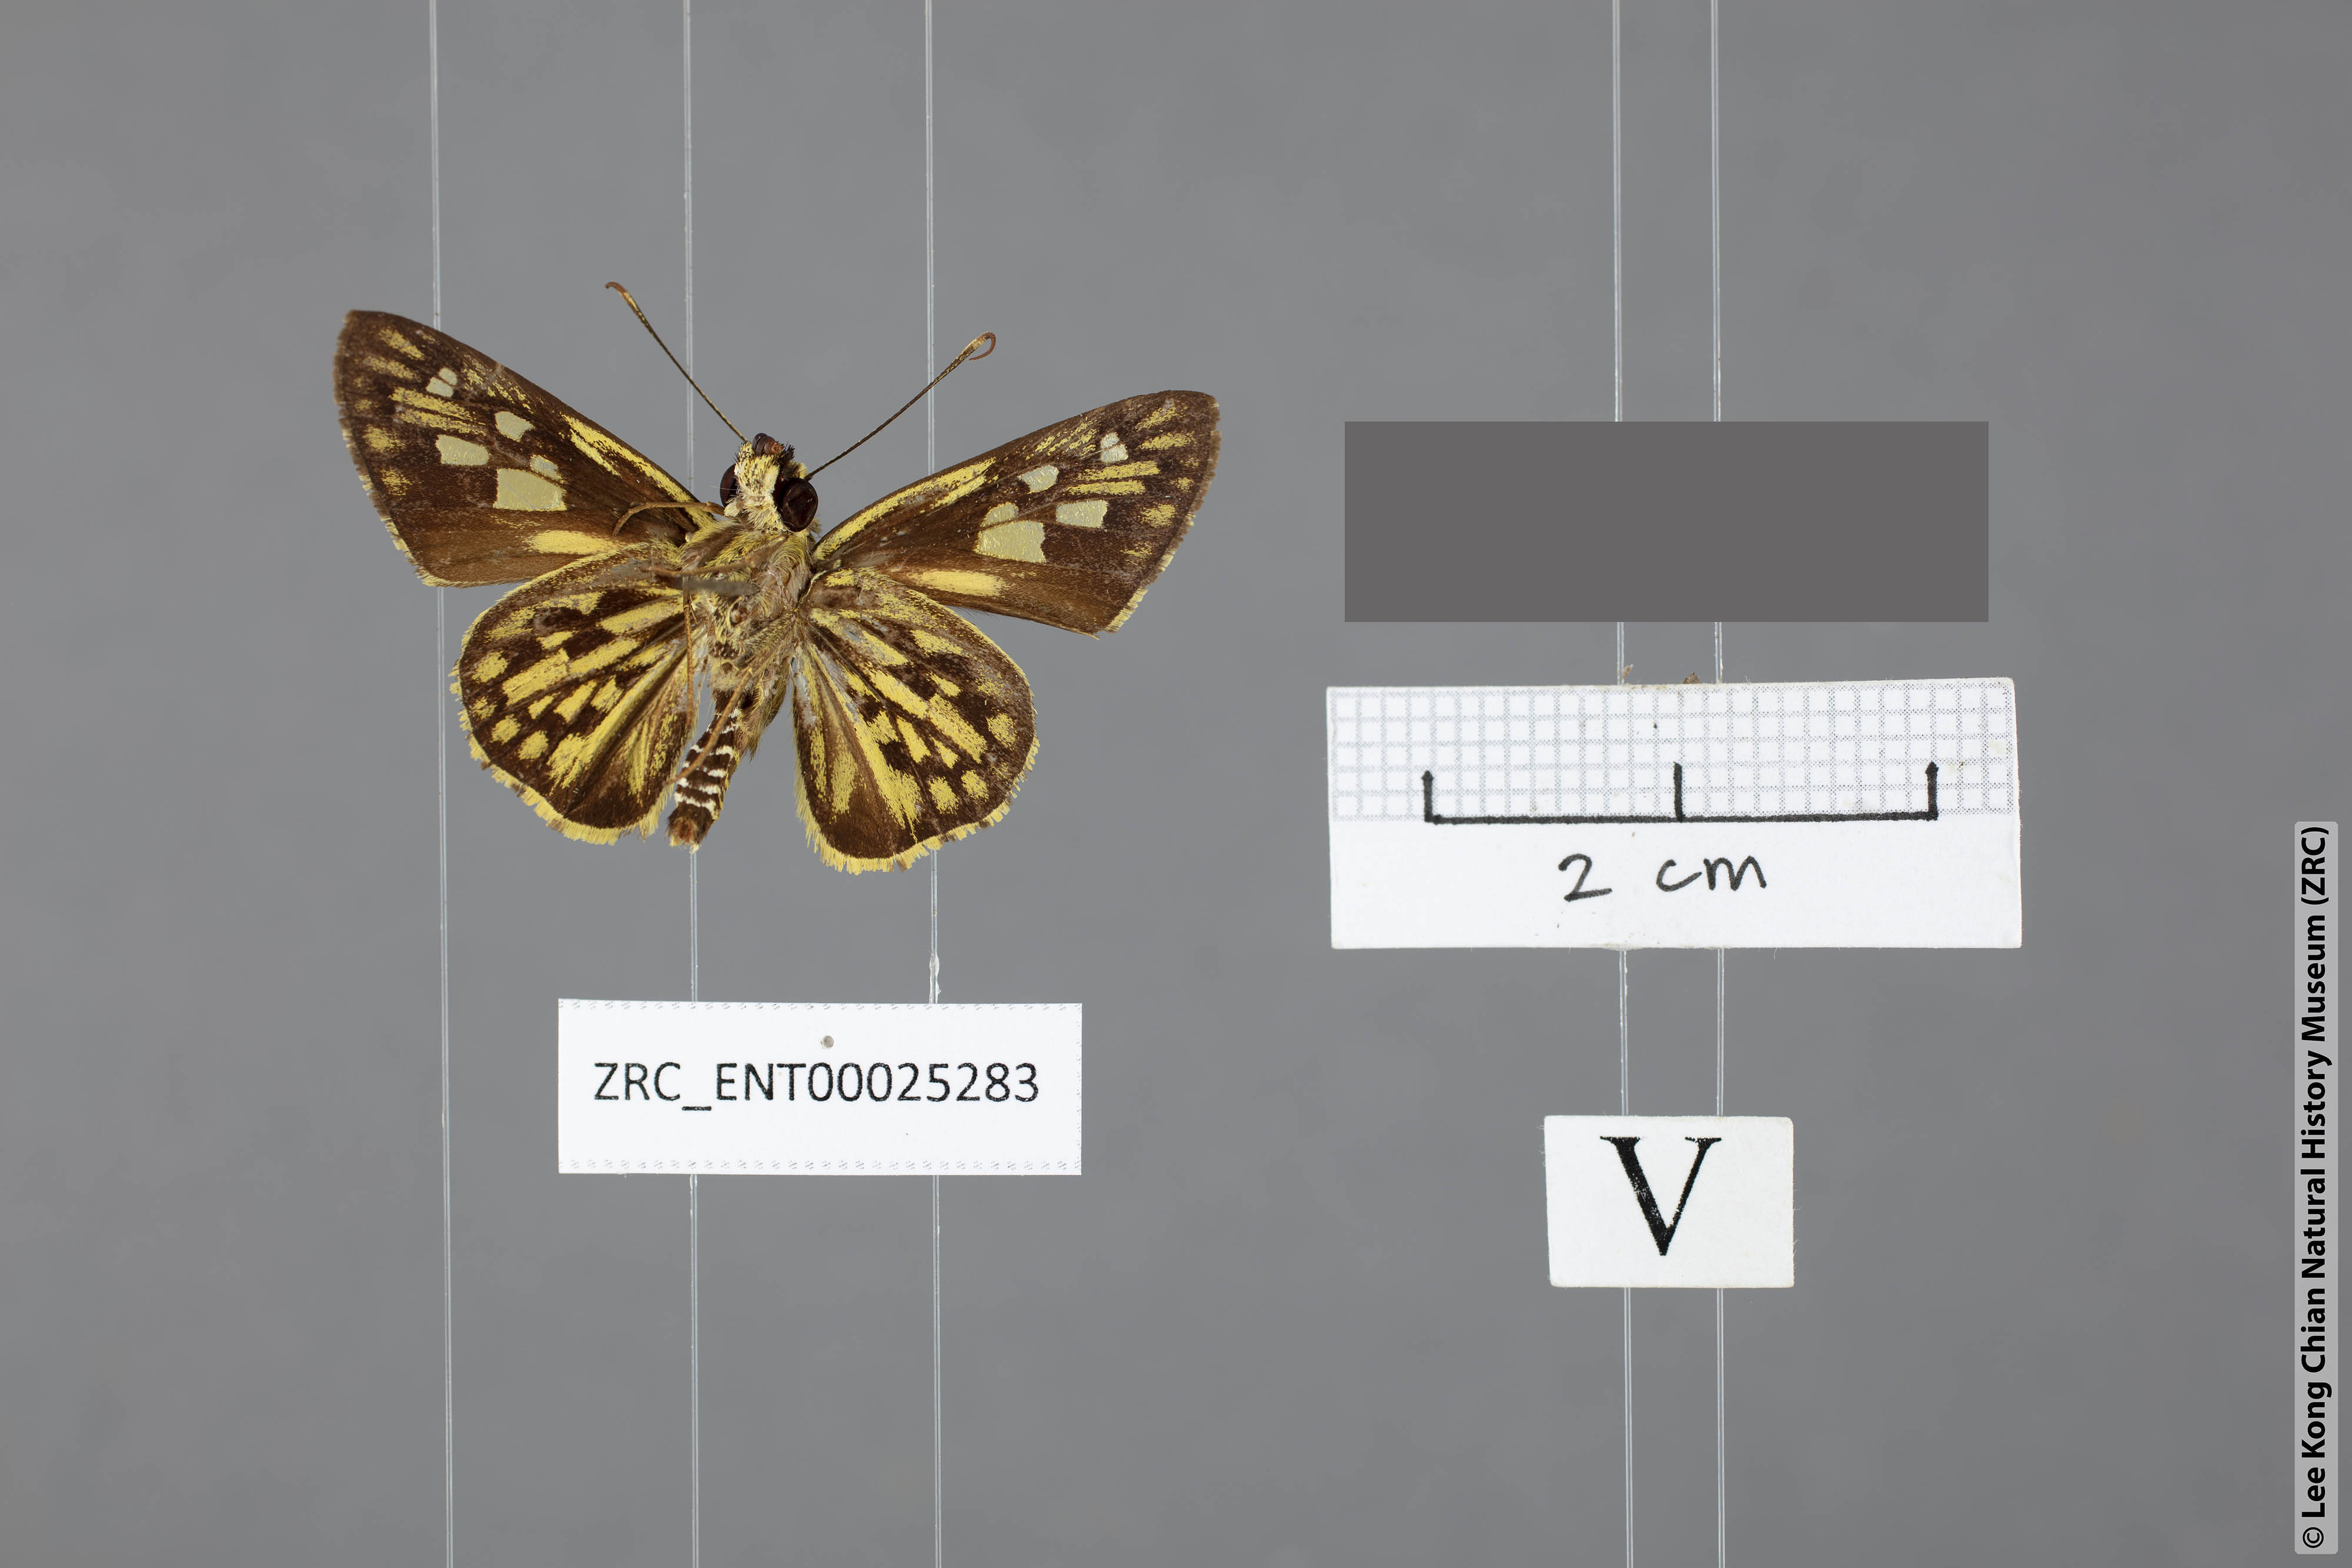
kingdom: Animalia
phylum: Arthropoda
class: Insecta
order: Lepidoptera
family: Hesperiidae
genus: Plastingia
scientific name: Plastingia pellonia
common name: Yellow chequered lancer
